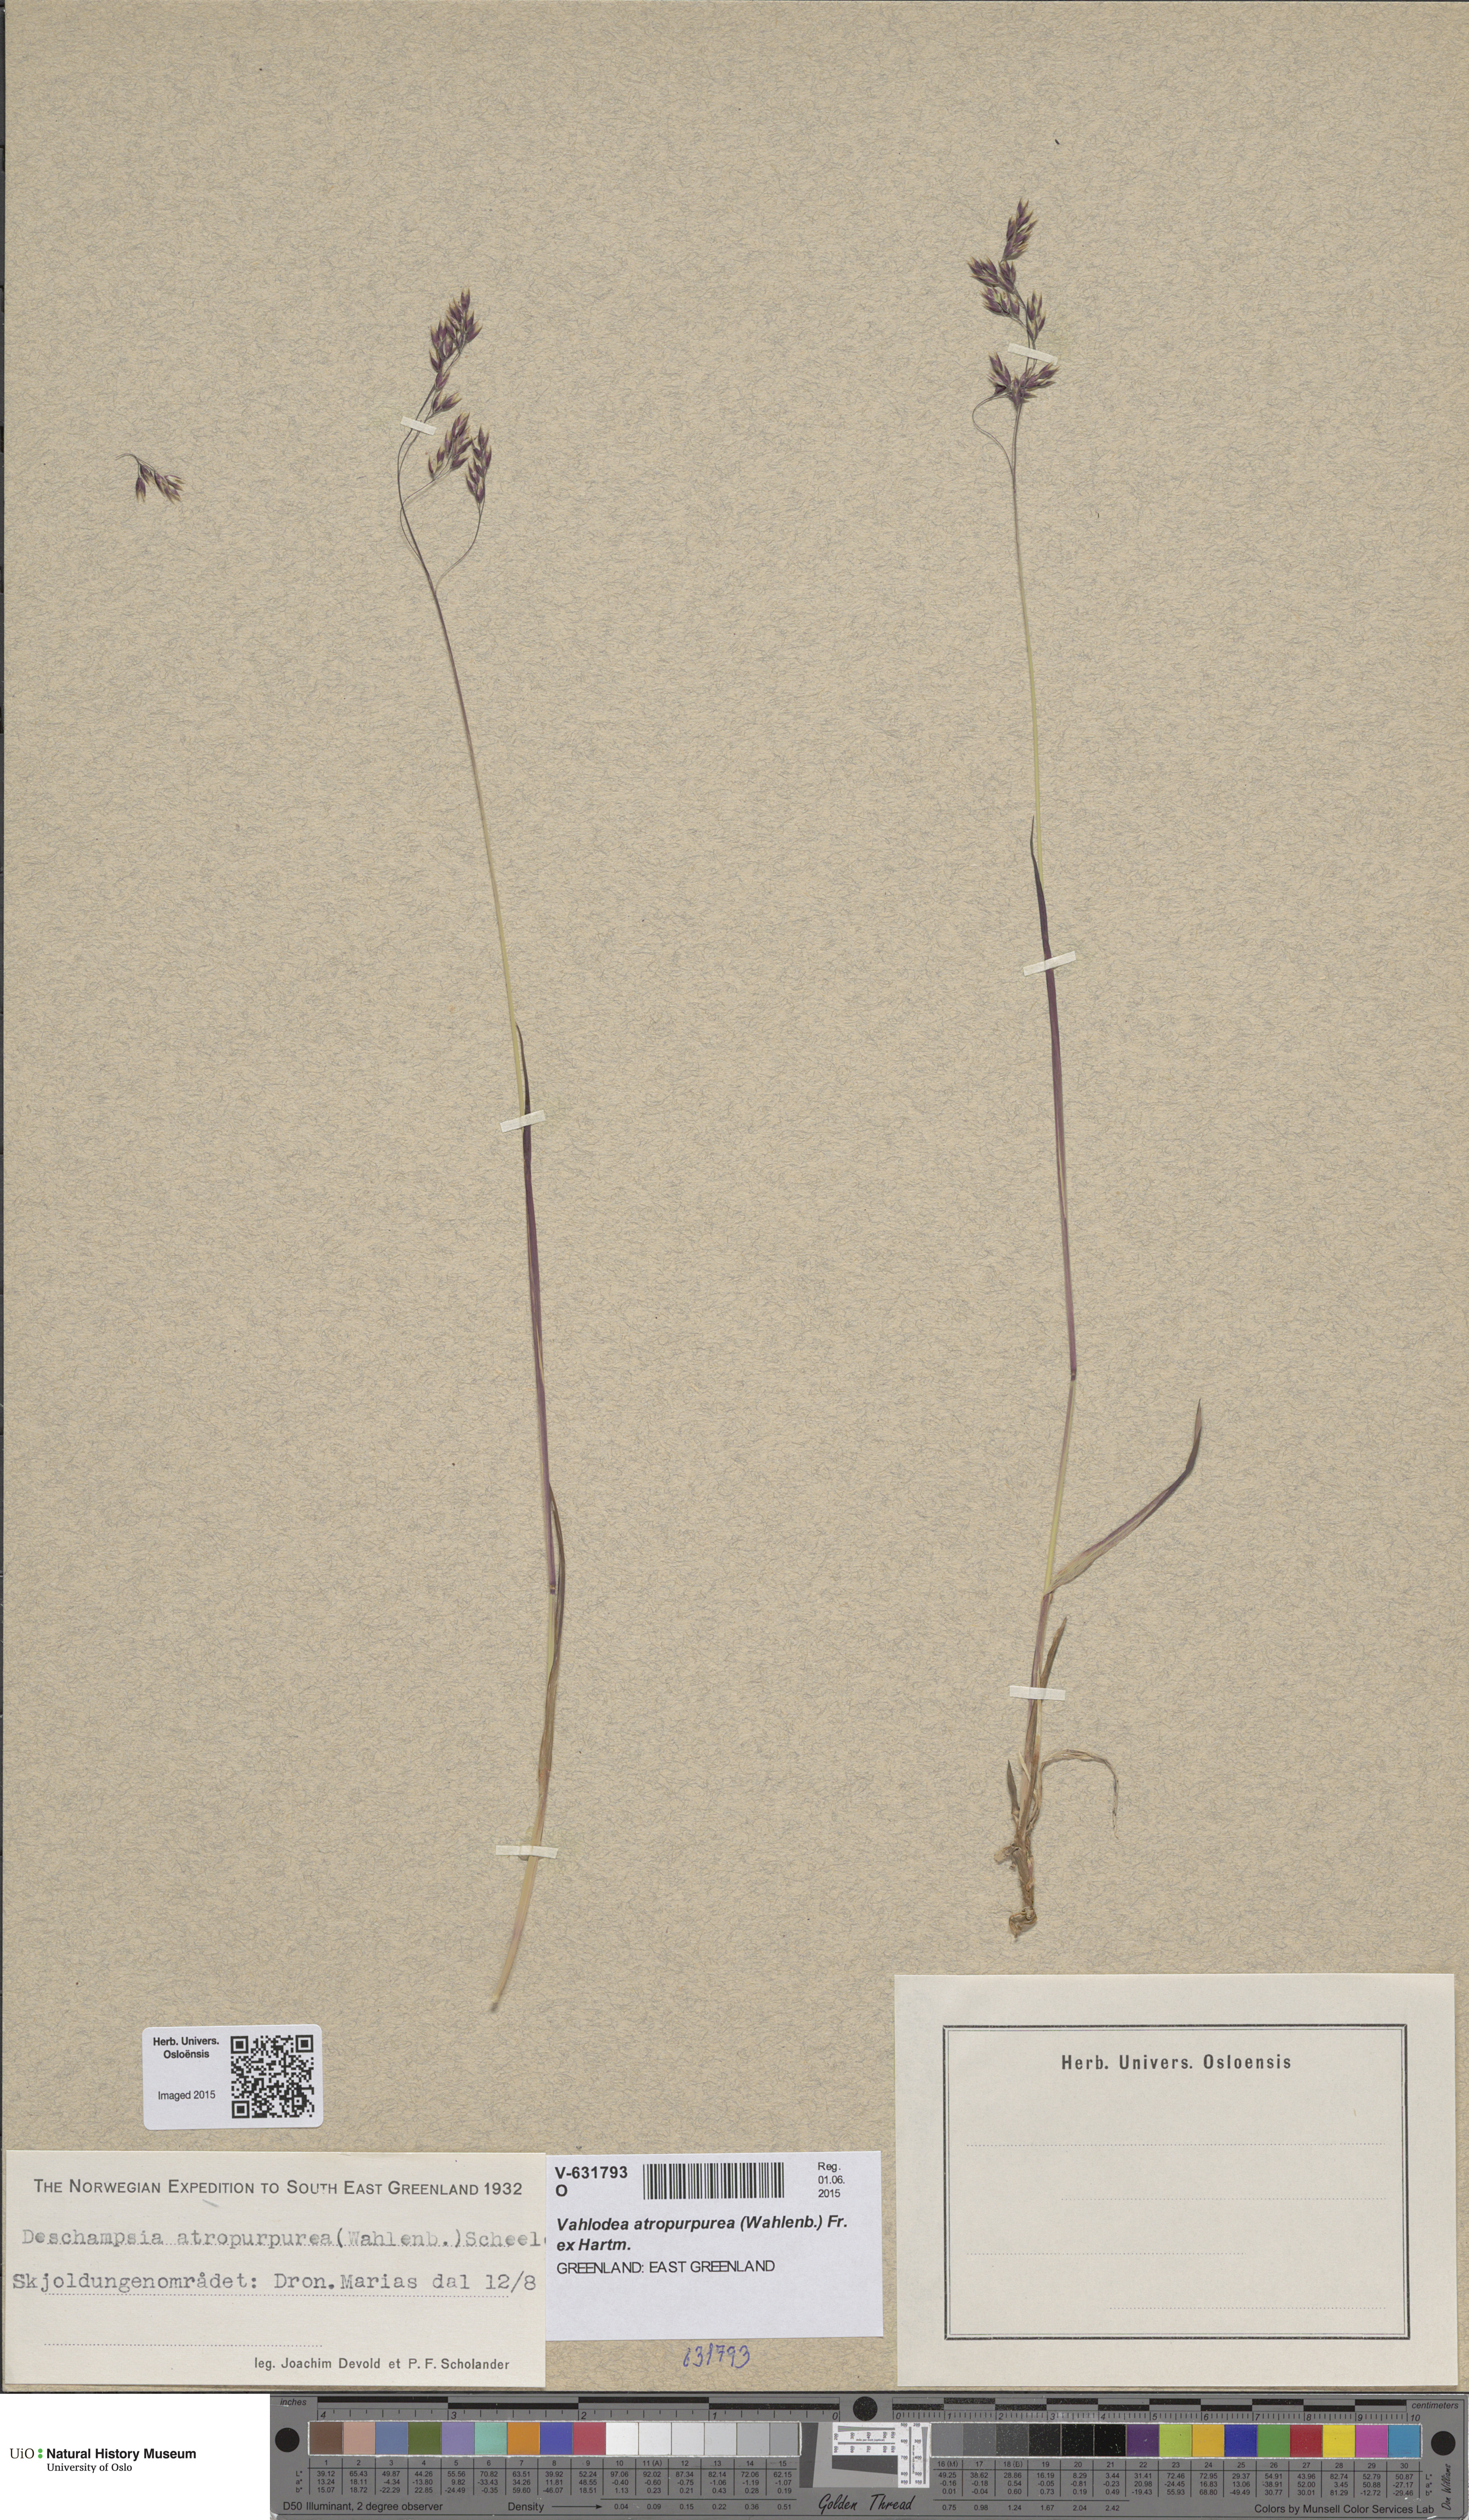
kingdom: Plantae
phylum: Tracheophyta
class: Liliopsida
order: Poales
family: Poaceae
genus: Vahlodea
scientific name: Vahlodea atropurpurea
